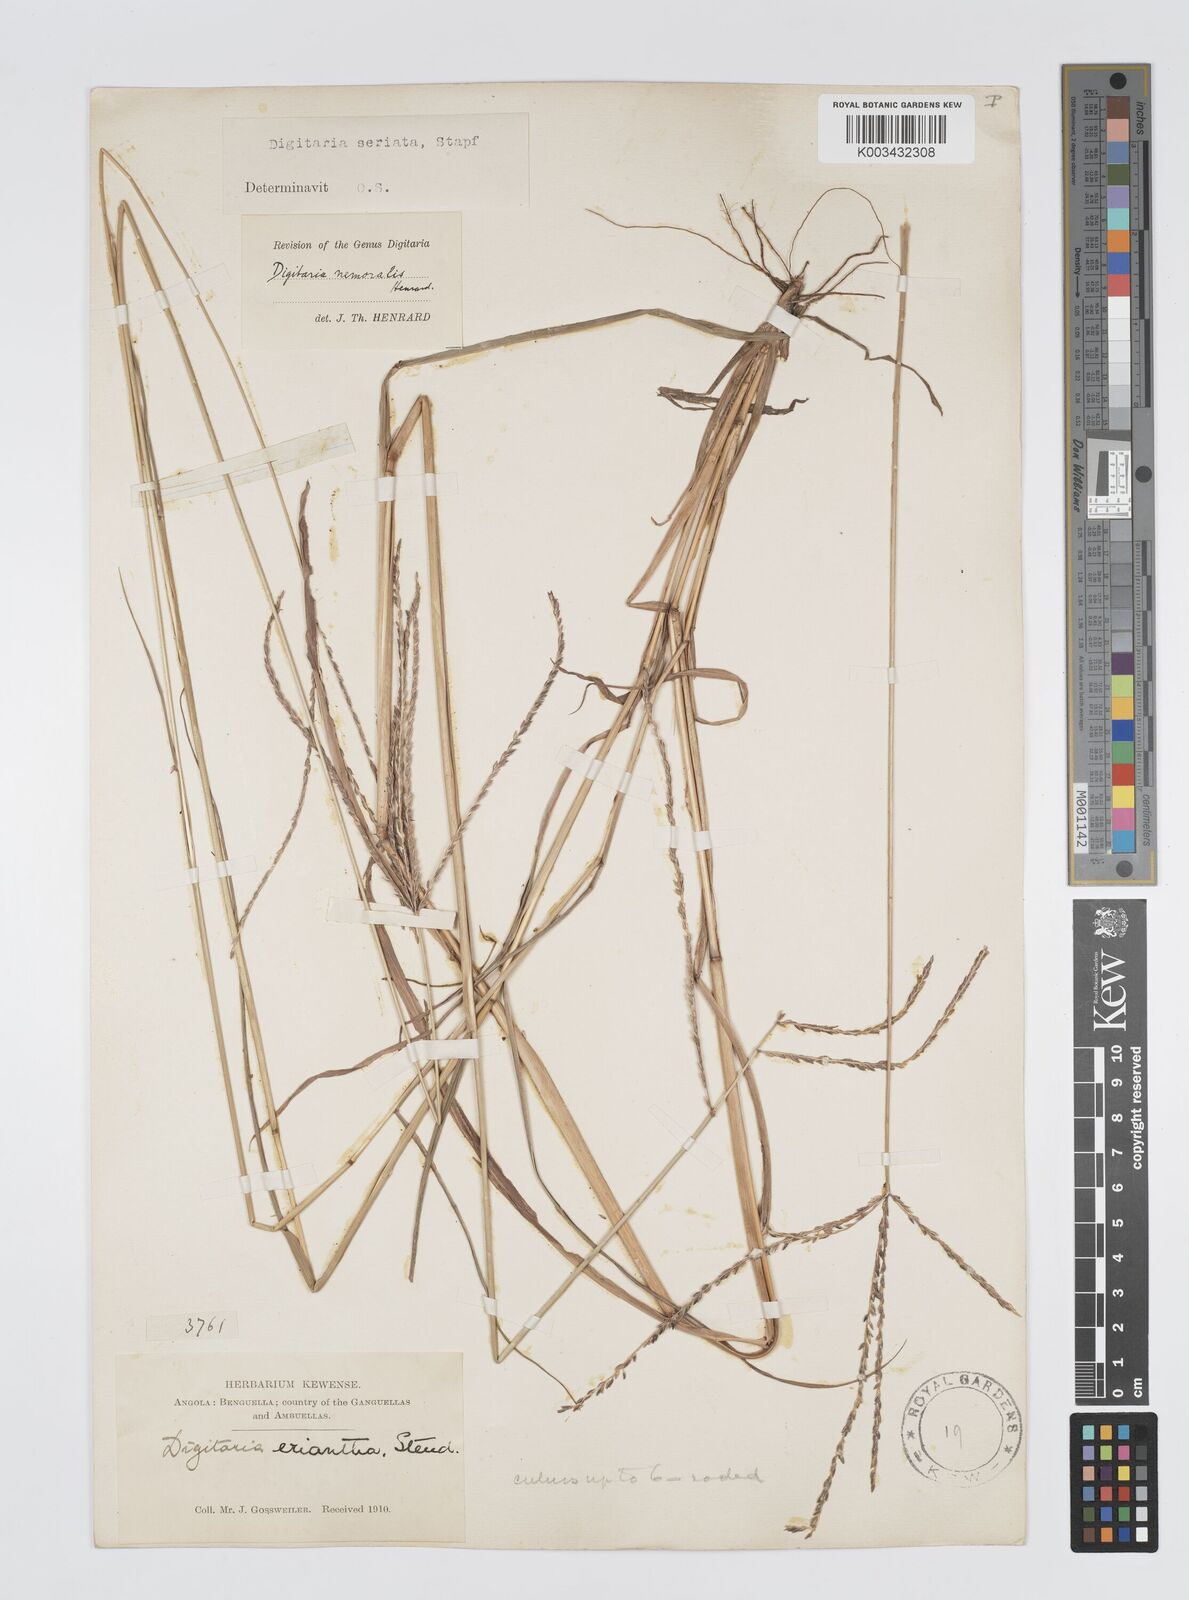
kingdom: Plantae
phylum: Tracheophyta
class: Liliopsida
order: Poales
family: Poaceae
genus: Digitaria
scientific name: Digitaria seriata
